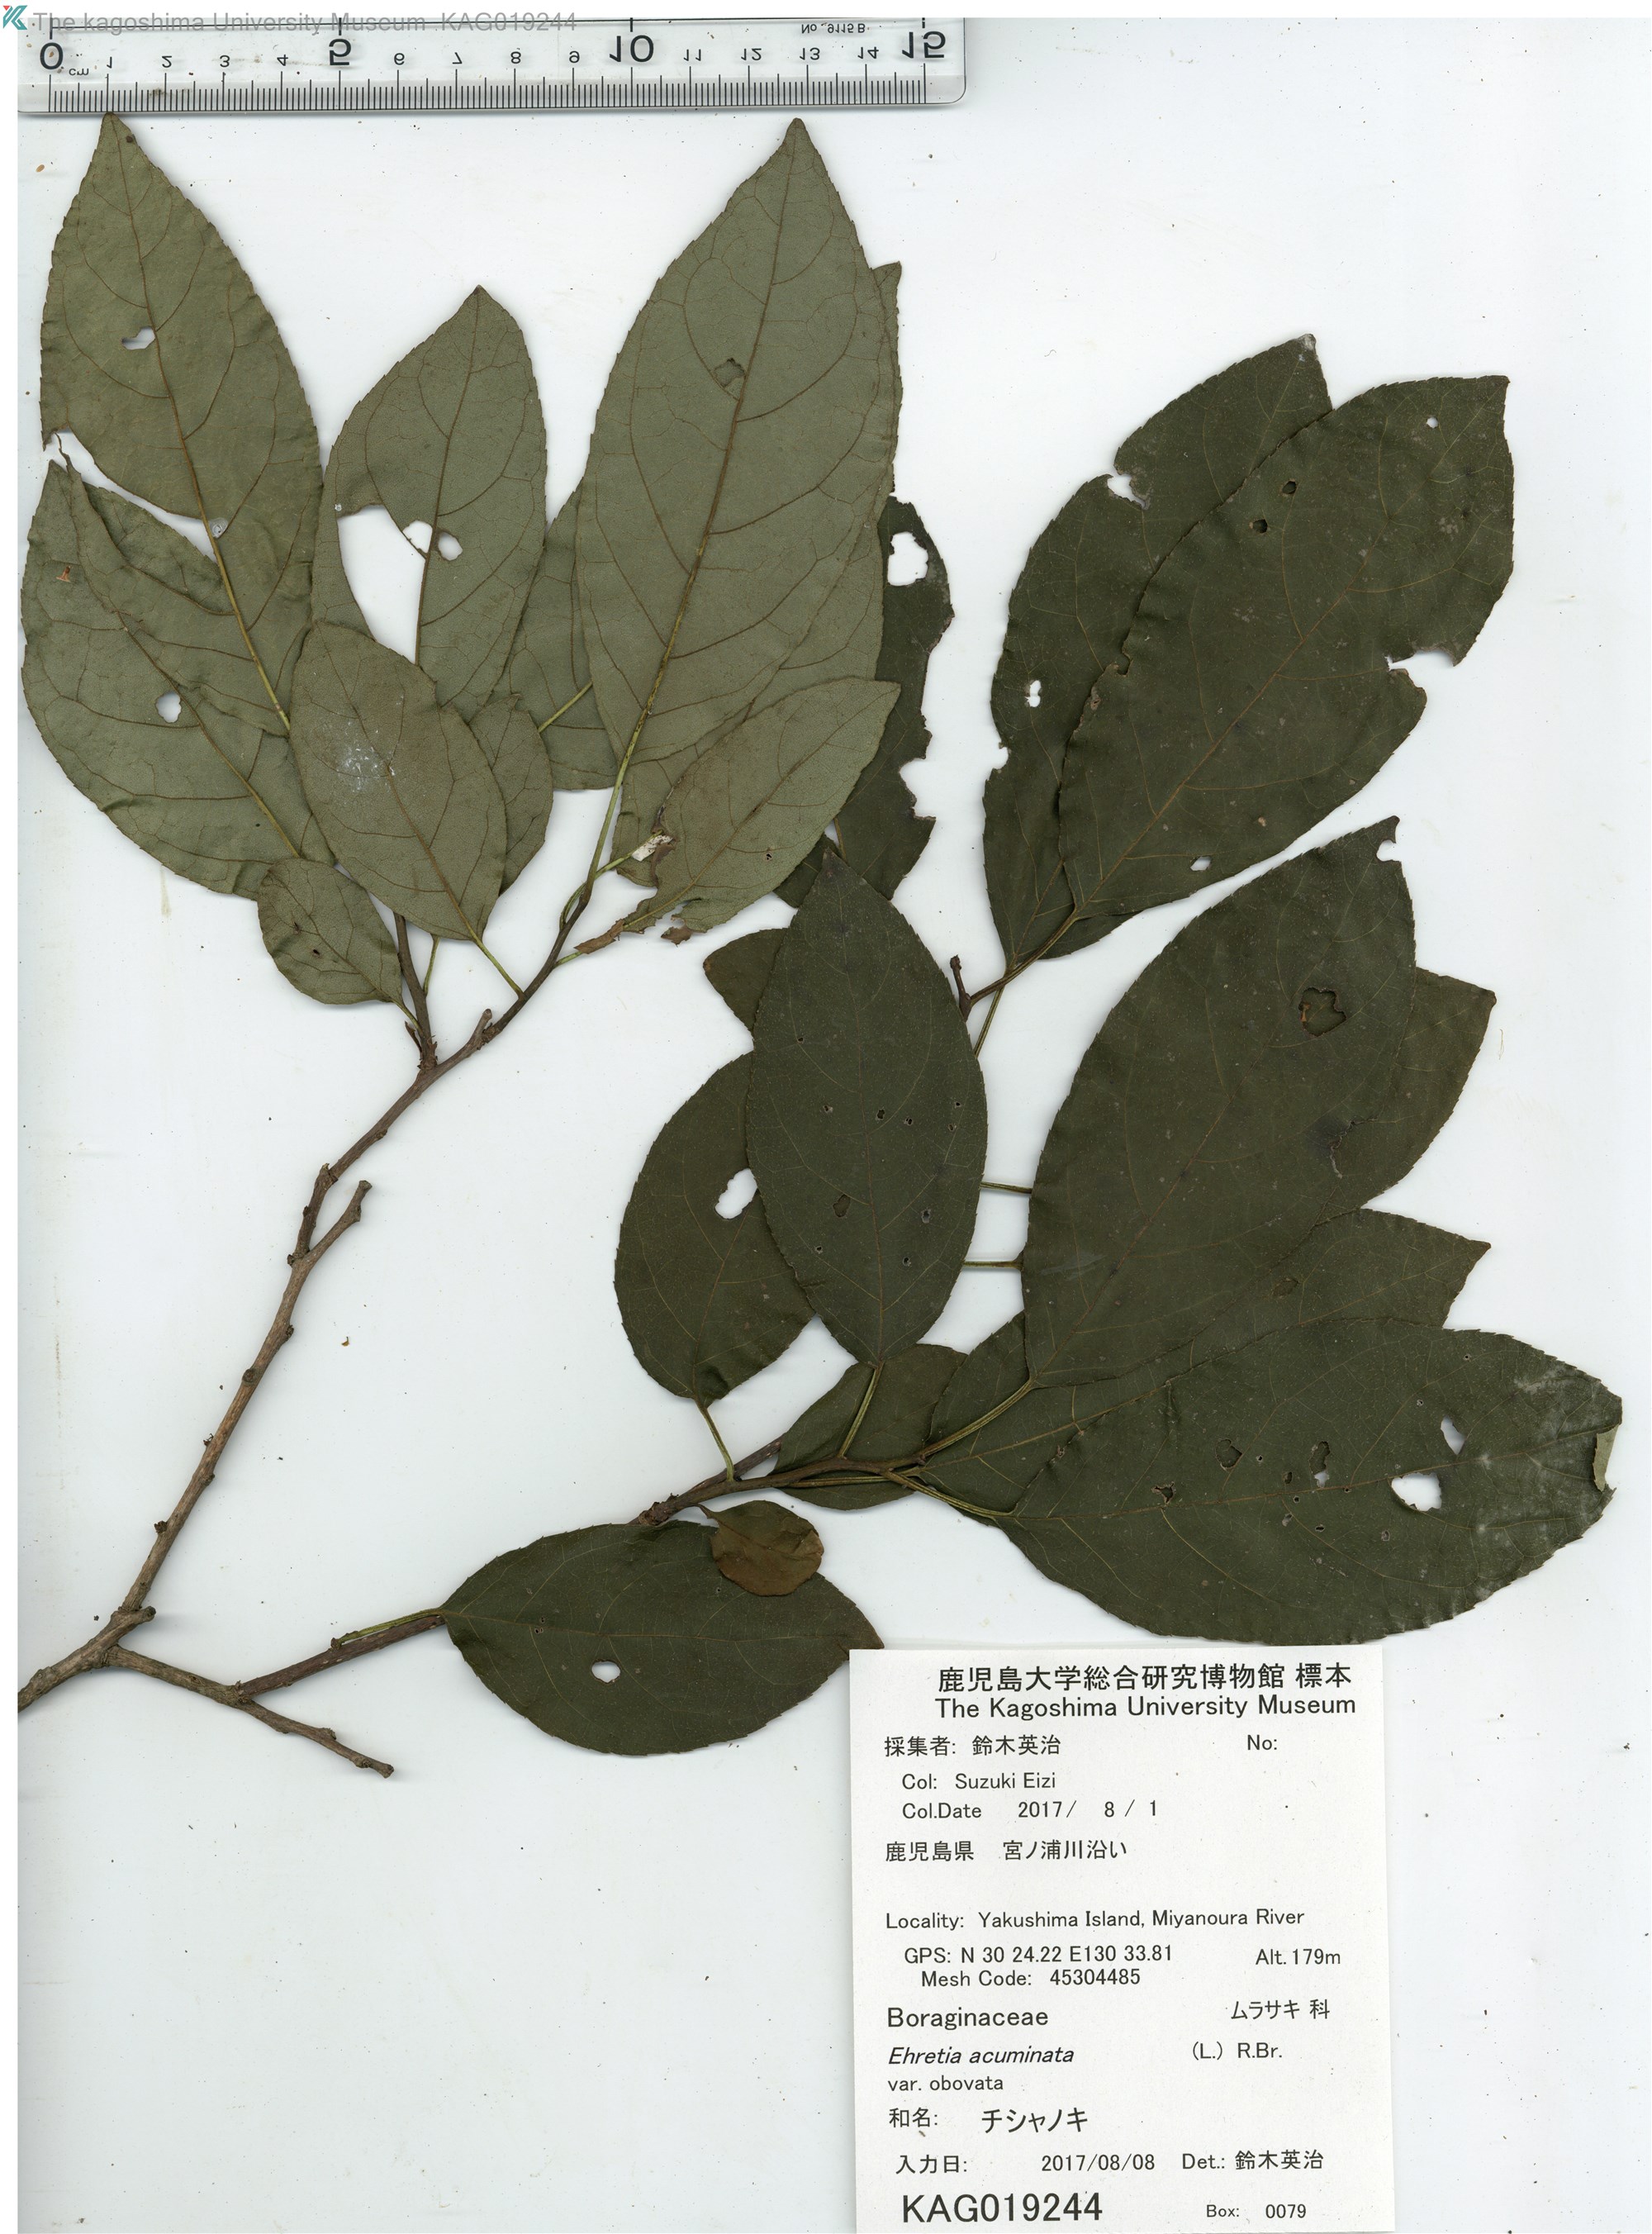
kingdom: Plantae
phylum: Tracheophyta
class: Magnoliopsida
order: Boraginales
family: Ehretiaceae
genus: Ehretia
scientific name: Ehretia acuminata
